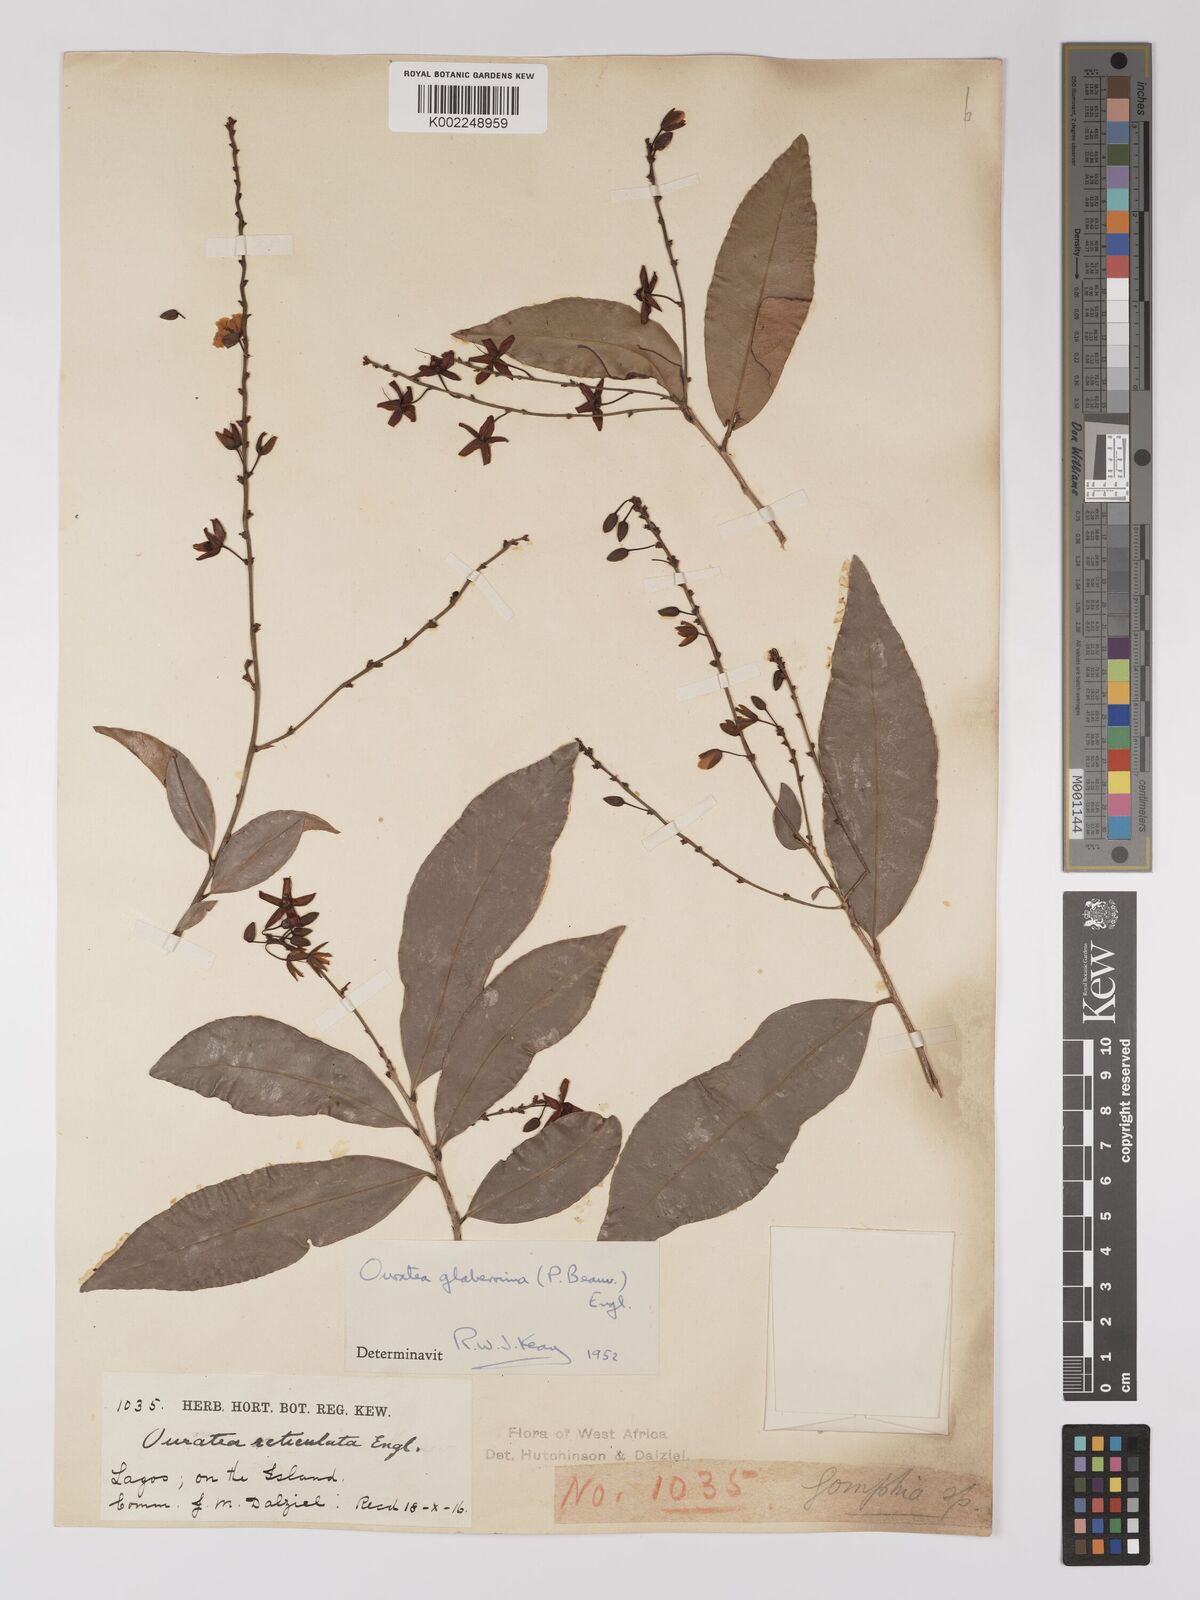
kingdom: Plantae
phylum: Tracheophyta
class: Magnoliopsida
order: Malpighiales
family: Ochnaceae
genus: Campylospermum
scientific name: Campylospermum glaberrimum
